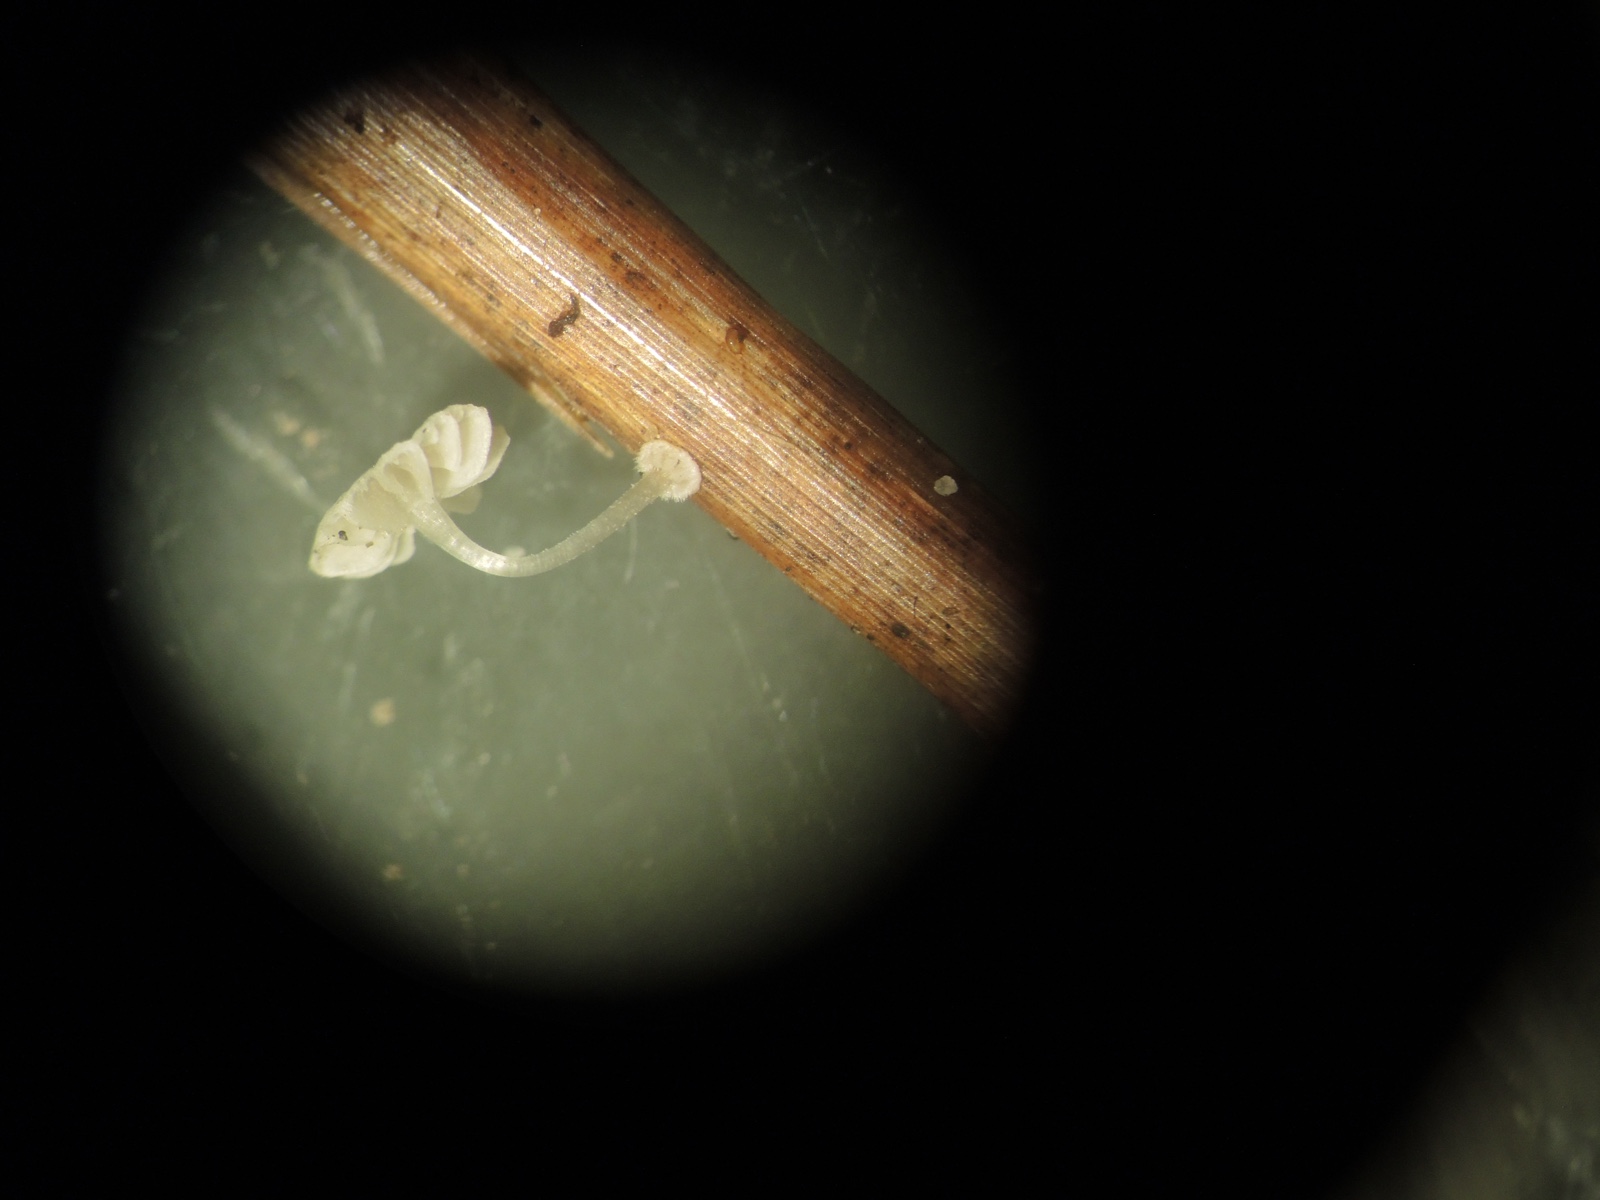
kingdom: Fungi
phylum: Basidiomycota
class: Agaricomycetes
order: Agaricales
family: Mycenaceae
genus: Mycena
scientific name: Mycena bulbosa
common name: siv-huesvamp
